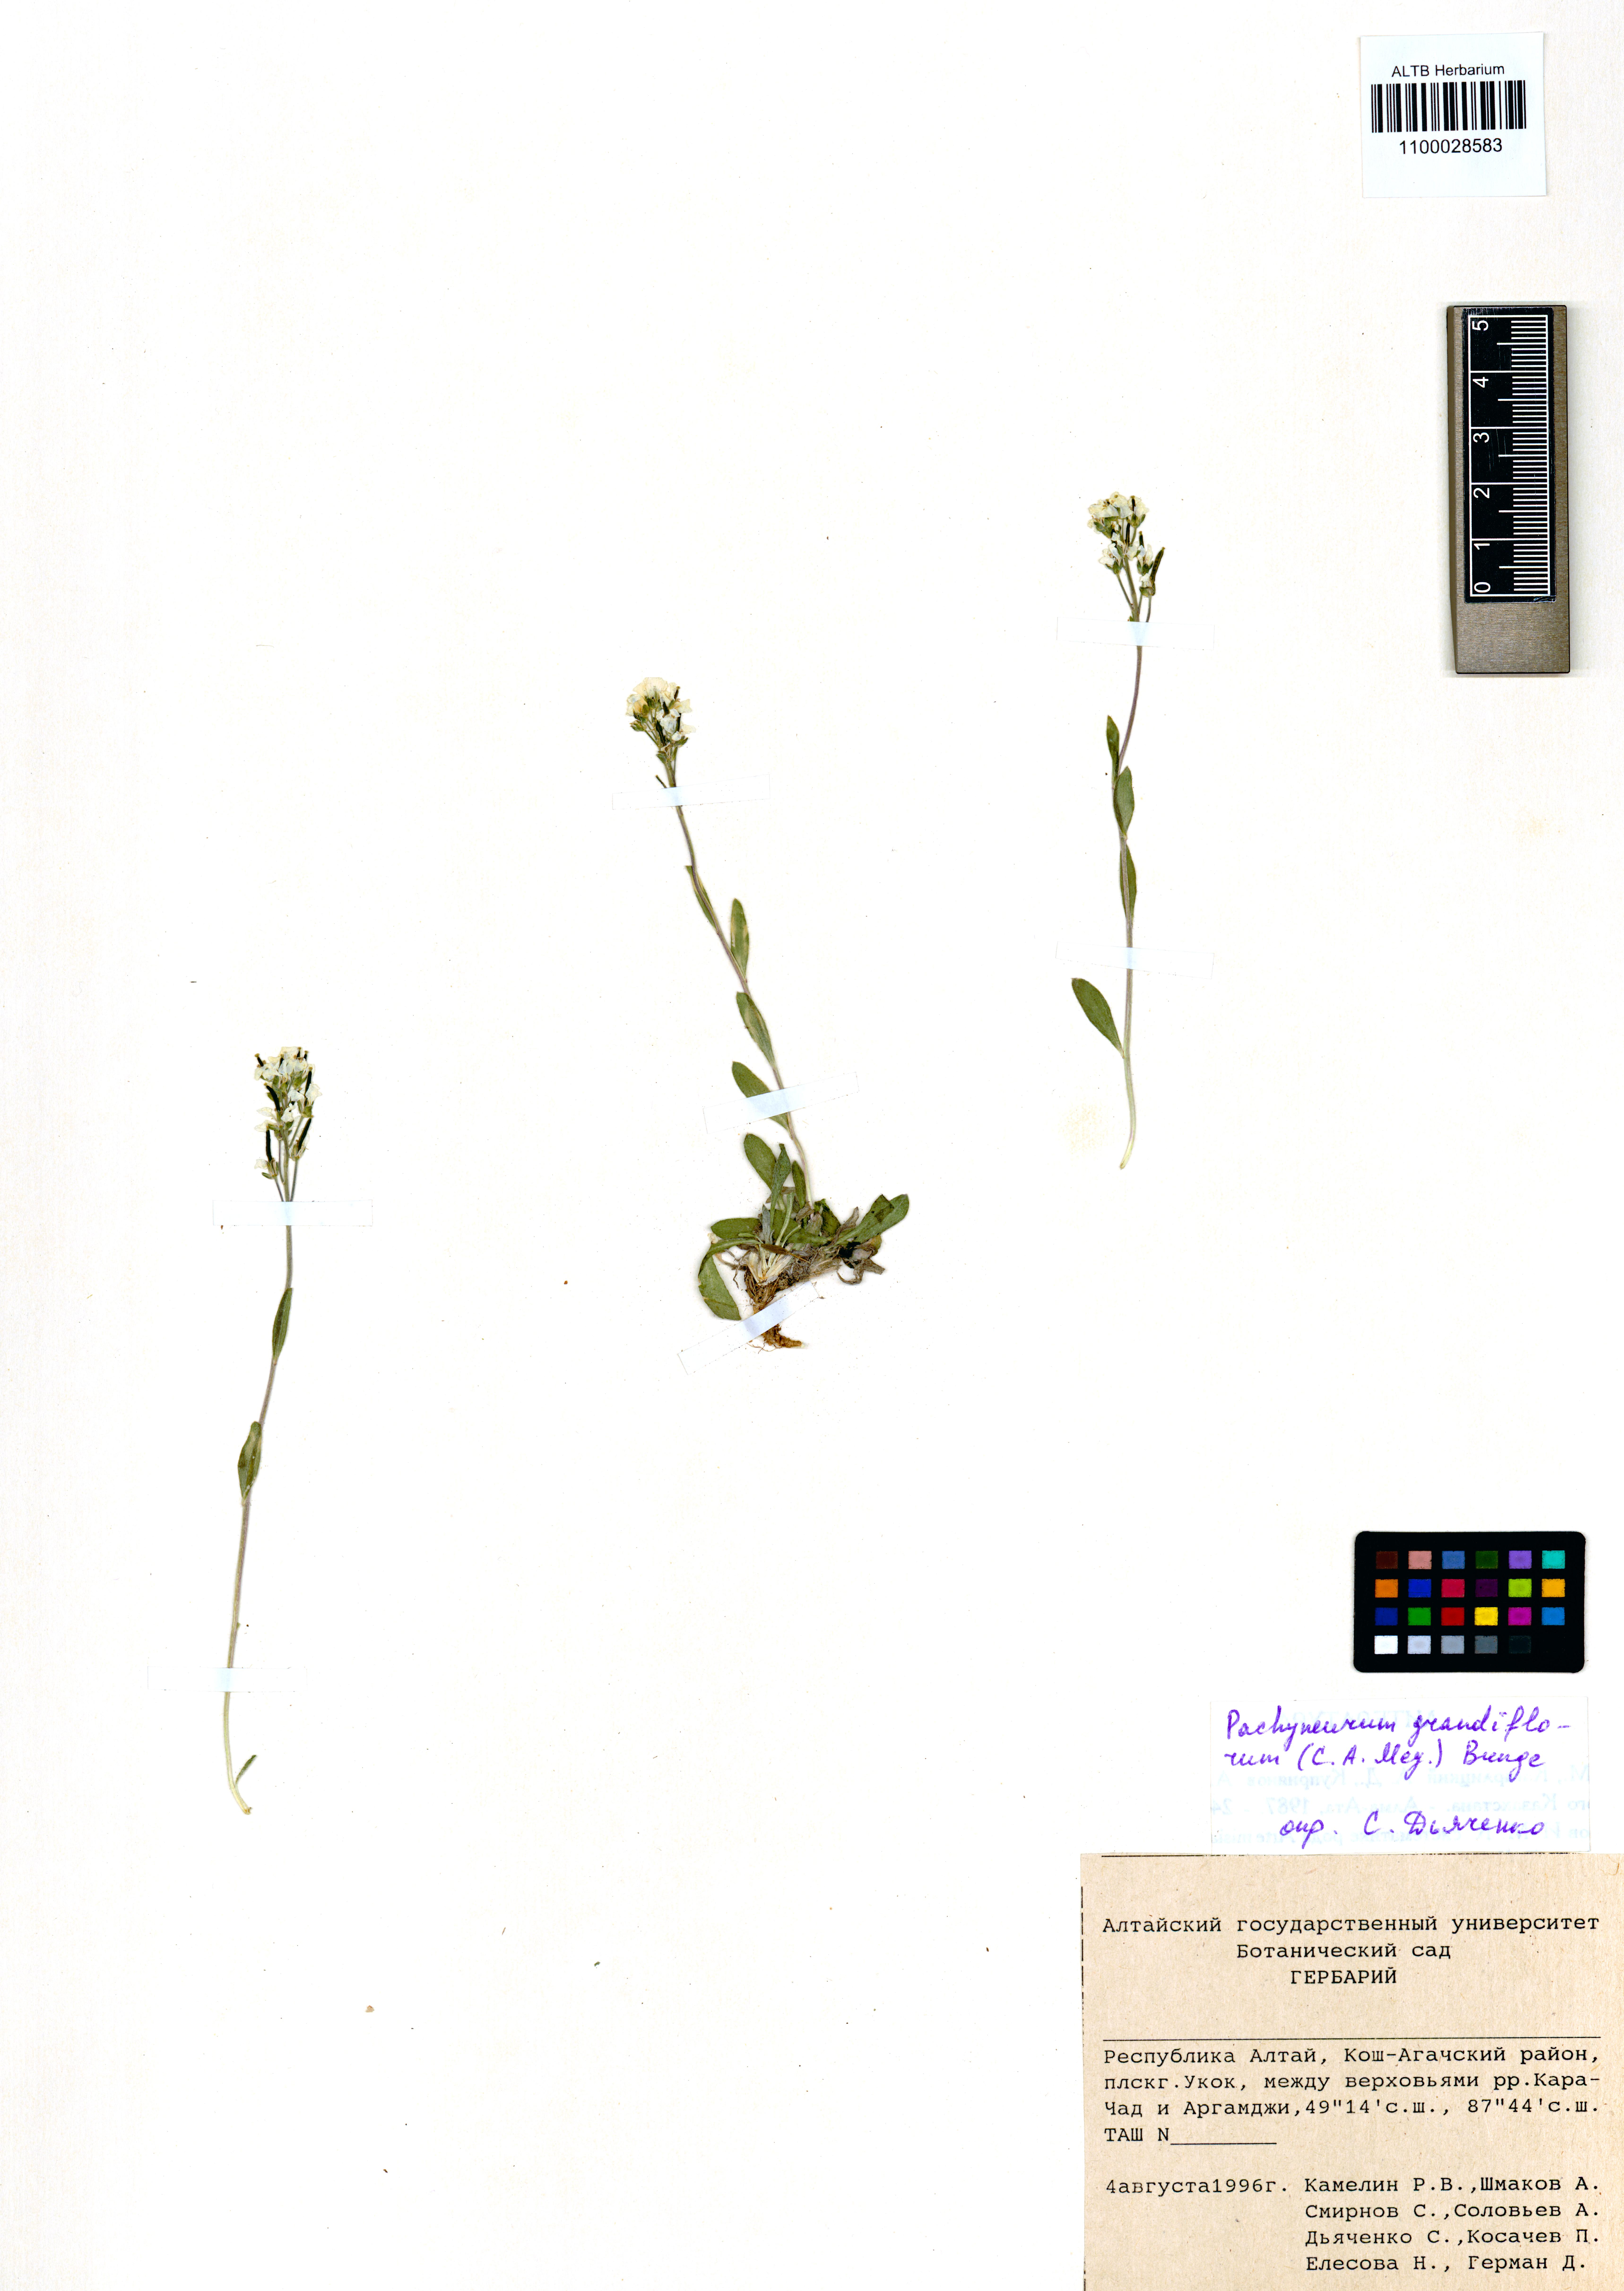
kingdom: Plantae
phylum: Tracheophyta
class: Magnoliopsida
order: Brassicales
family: Brassicaceae
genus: Pachyneurum
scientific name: Pachyneurum grandiflorum
